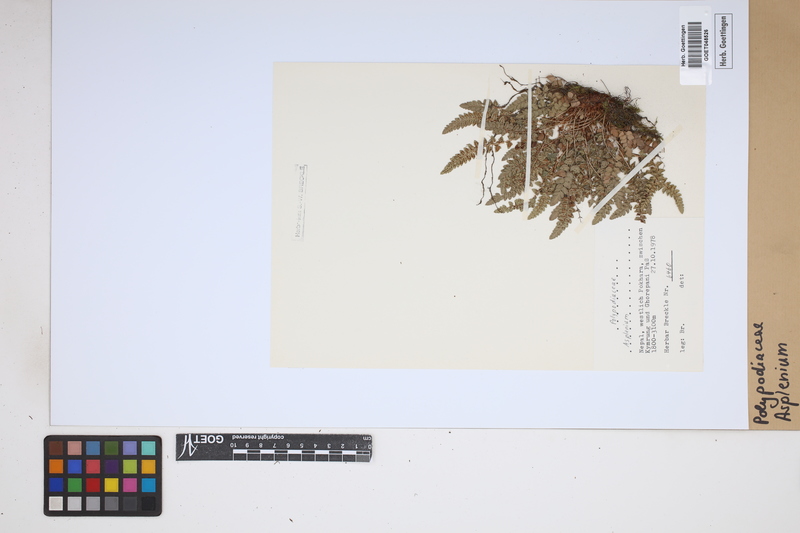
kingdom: Plantae
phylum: Tracheophyta
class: Polypodiopsida
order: Polypodiales
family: Aspleniaceae
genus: Asplenium
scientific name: Asplenium
